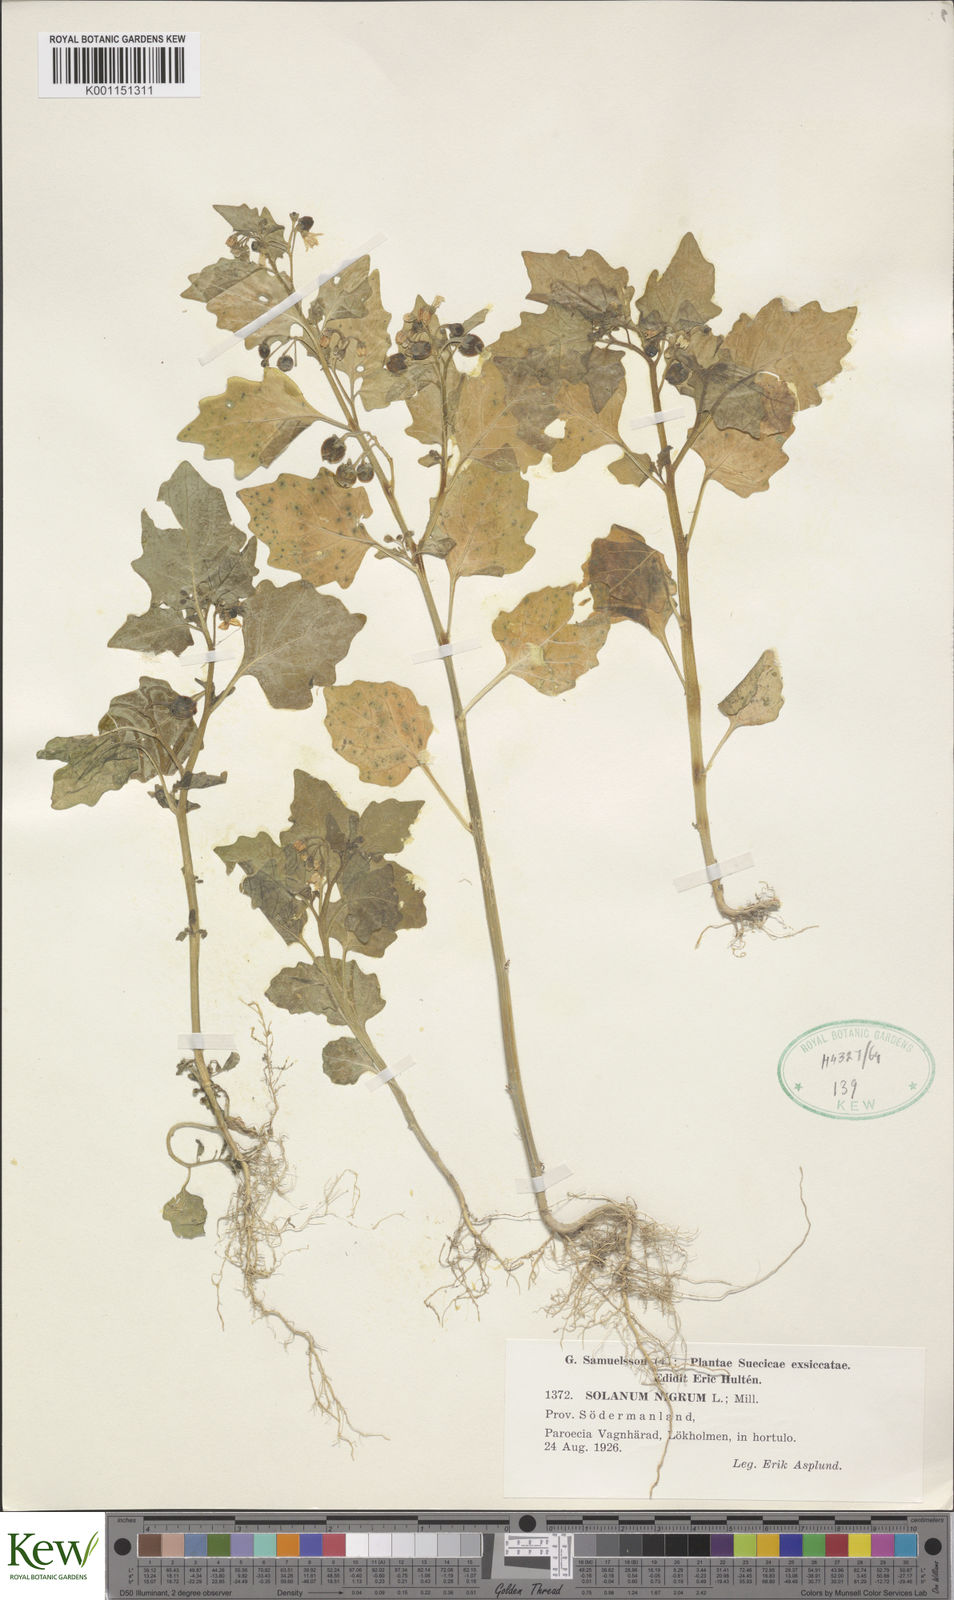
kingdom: Plantae
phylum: Tracheophyta
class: Magnoliopsida
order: Solanales
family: Solanaceae
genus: Solanum
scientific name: Solanum nigrum
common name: Black nightshade
